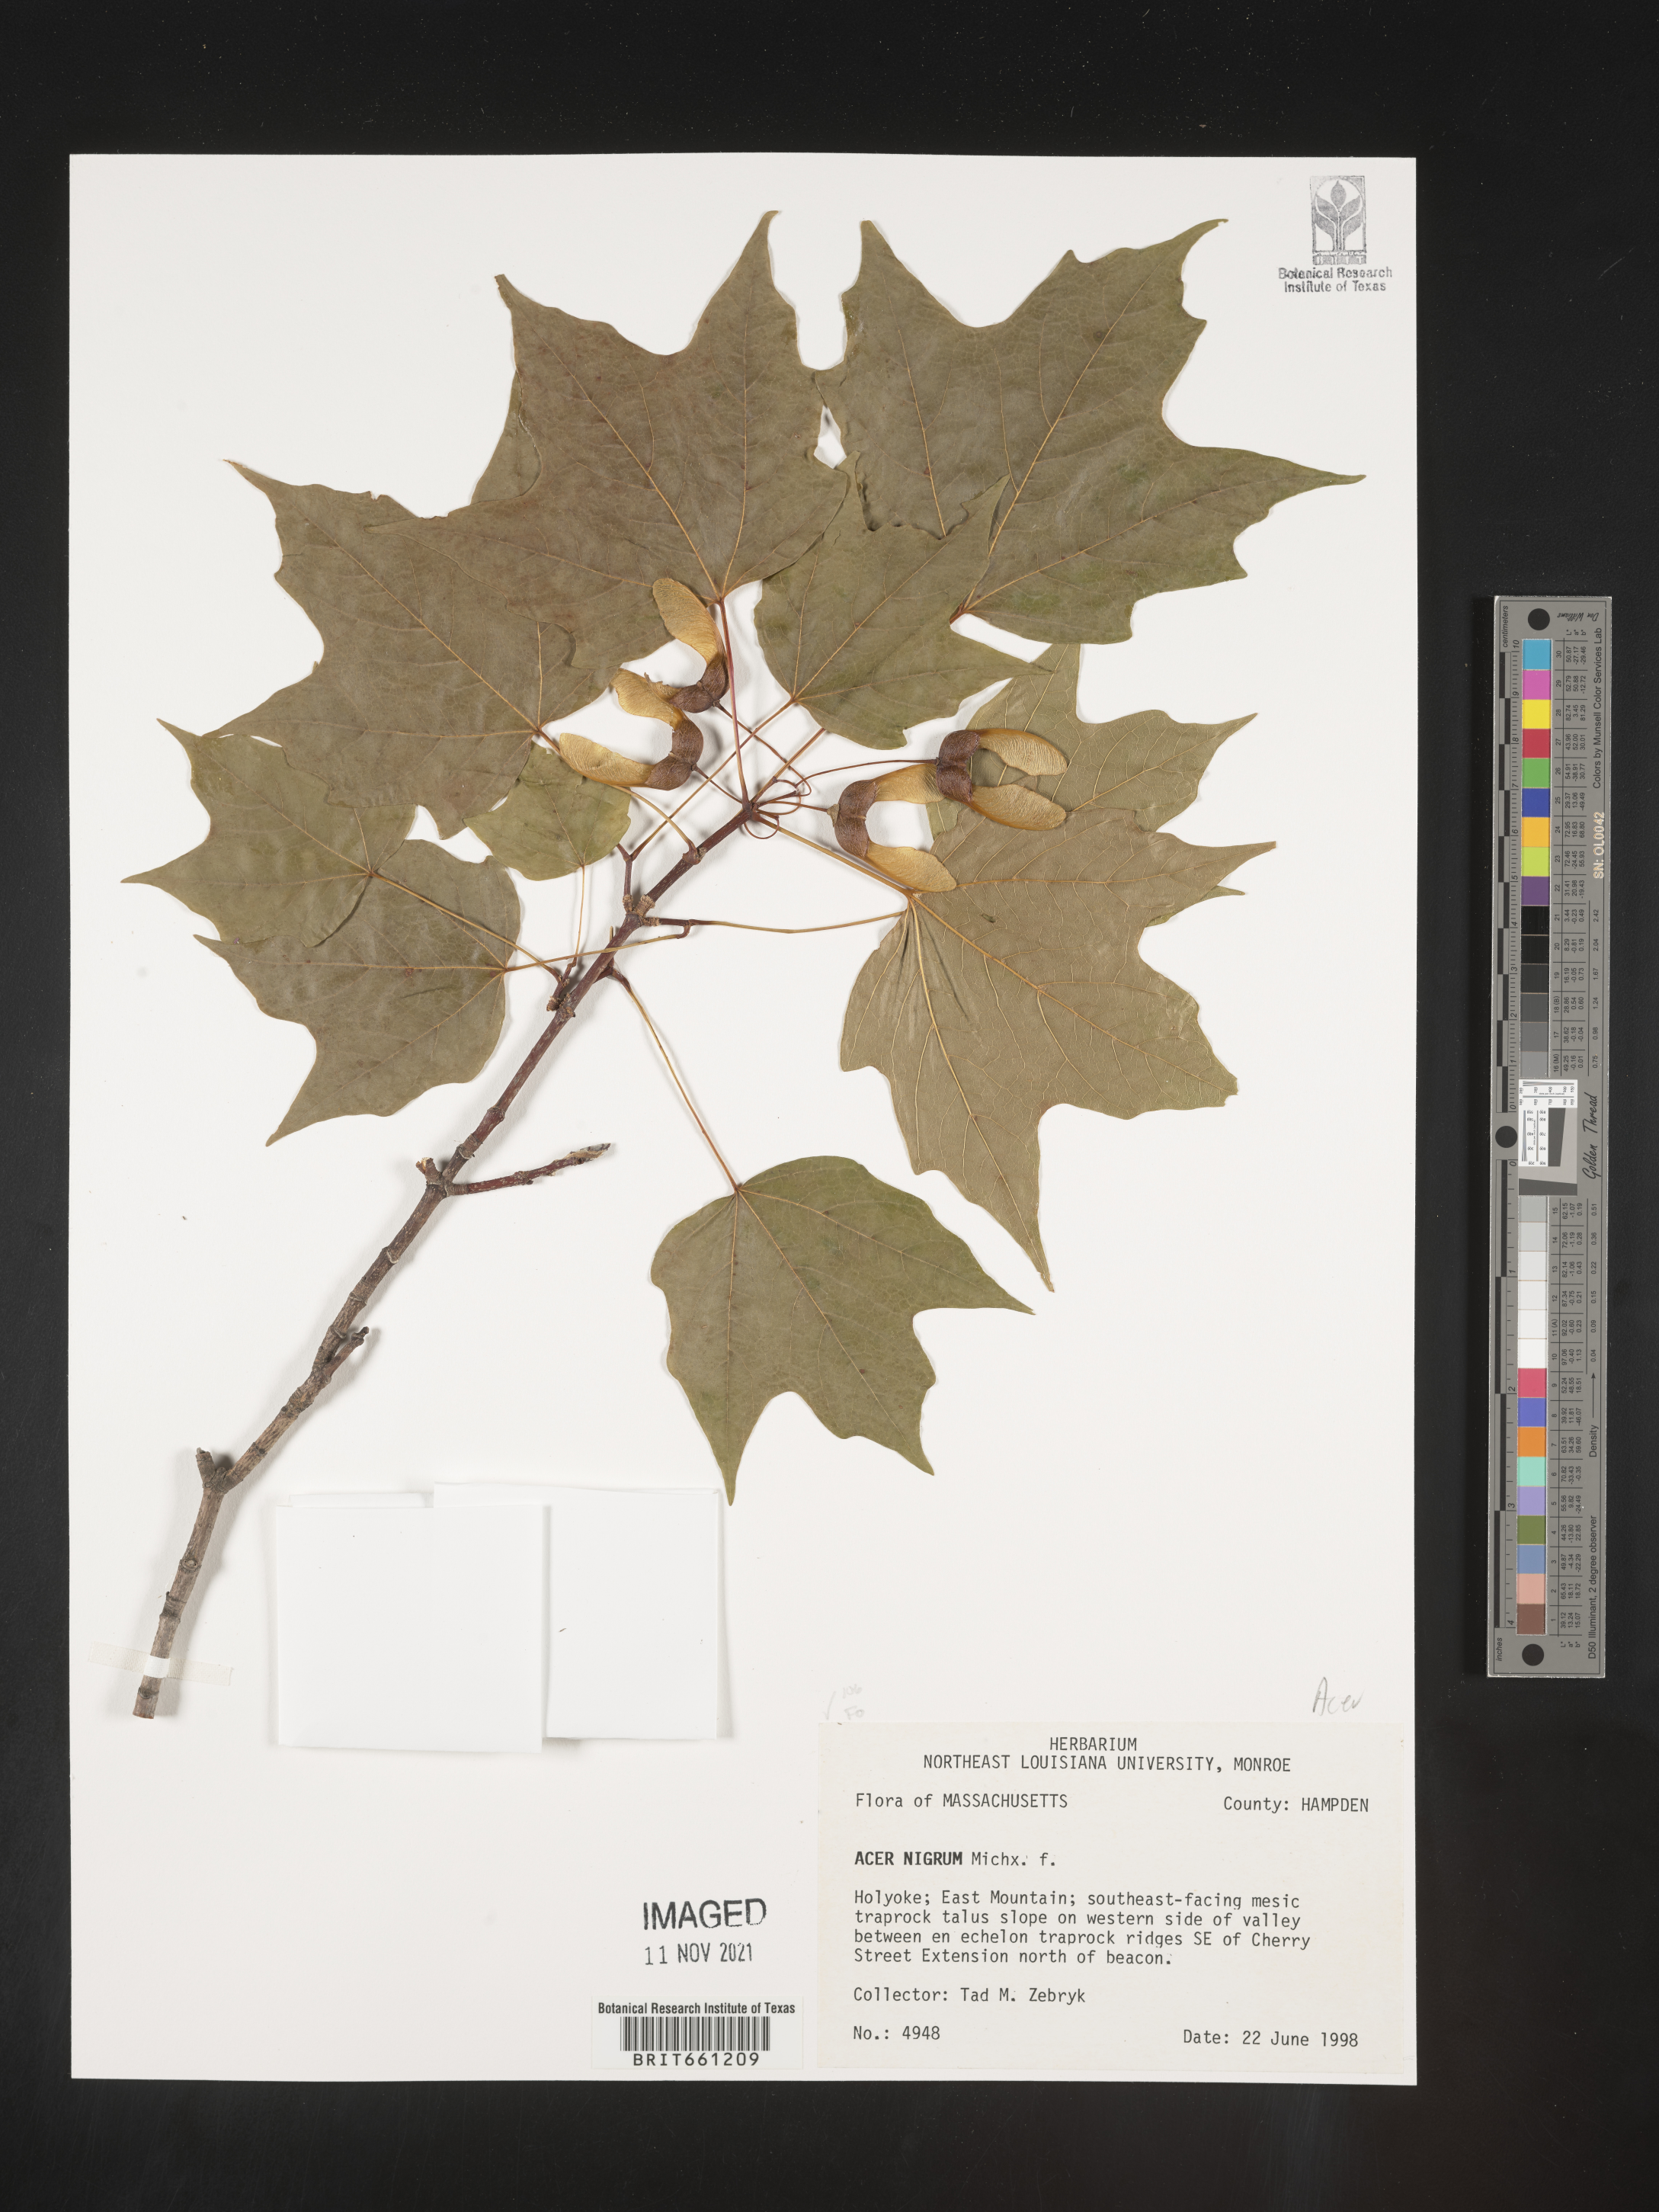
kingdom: Plantae
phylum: Tracheophyta
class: Magnoliopsida
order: Sapindales
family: Sapindaceae
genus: Acer
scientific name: Acer
